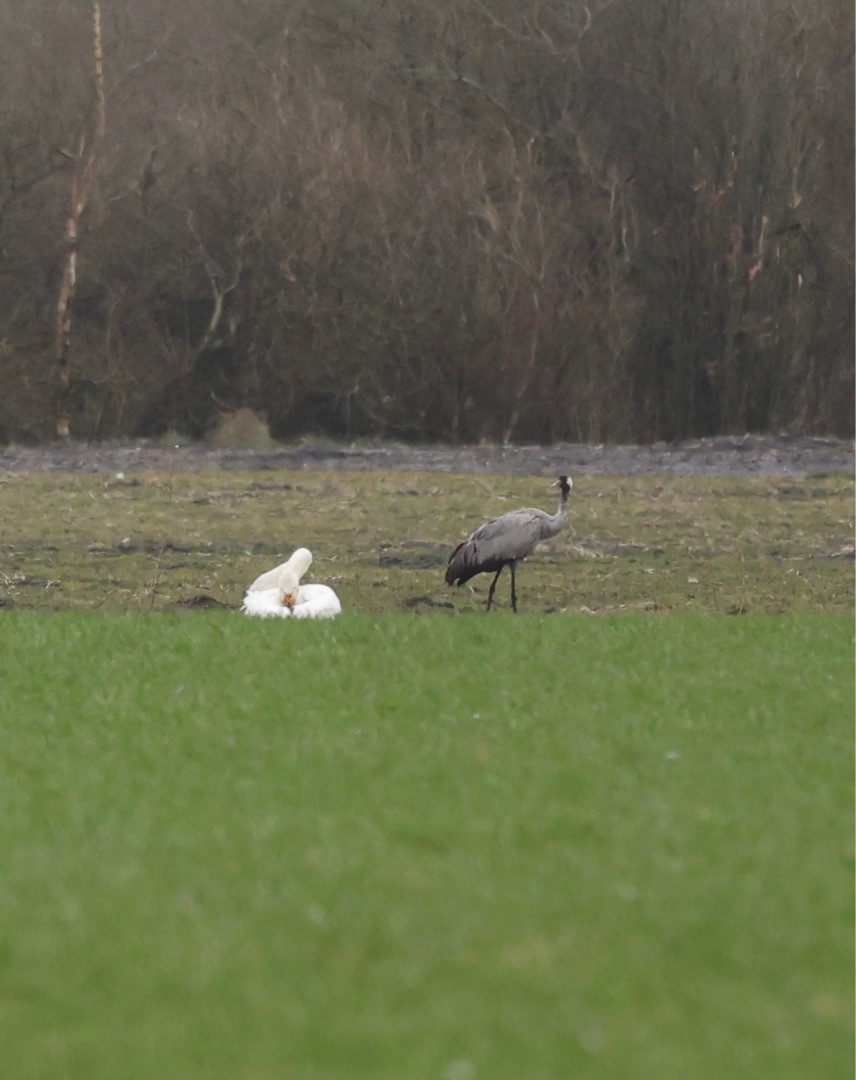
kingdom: Animalia
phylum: Chordata
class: Aves
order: Gruiformes
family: Gruidae
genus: Grus
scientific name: Grus grus
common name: Trane
